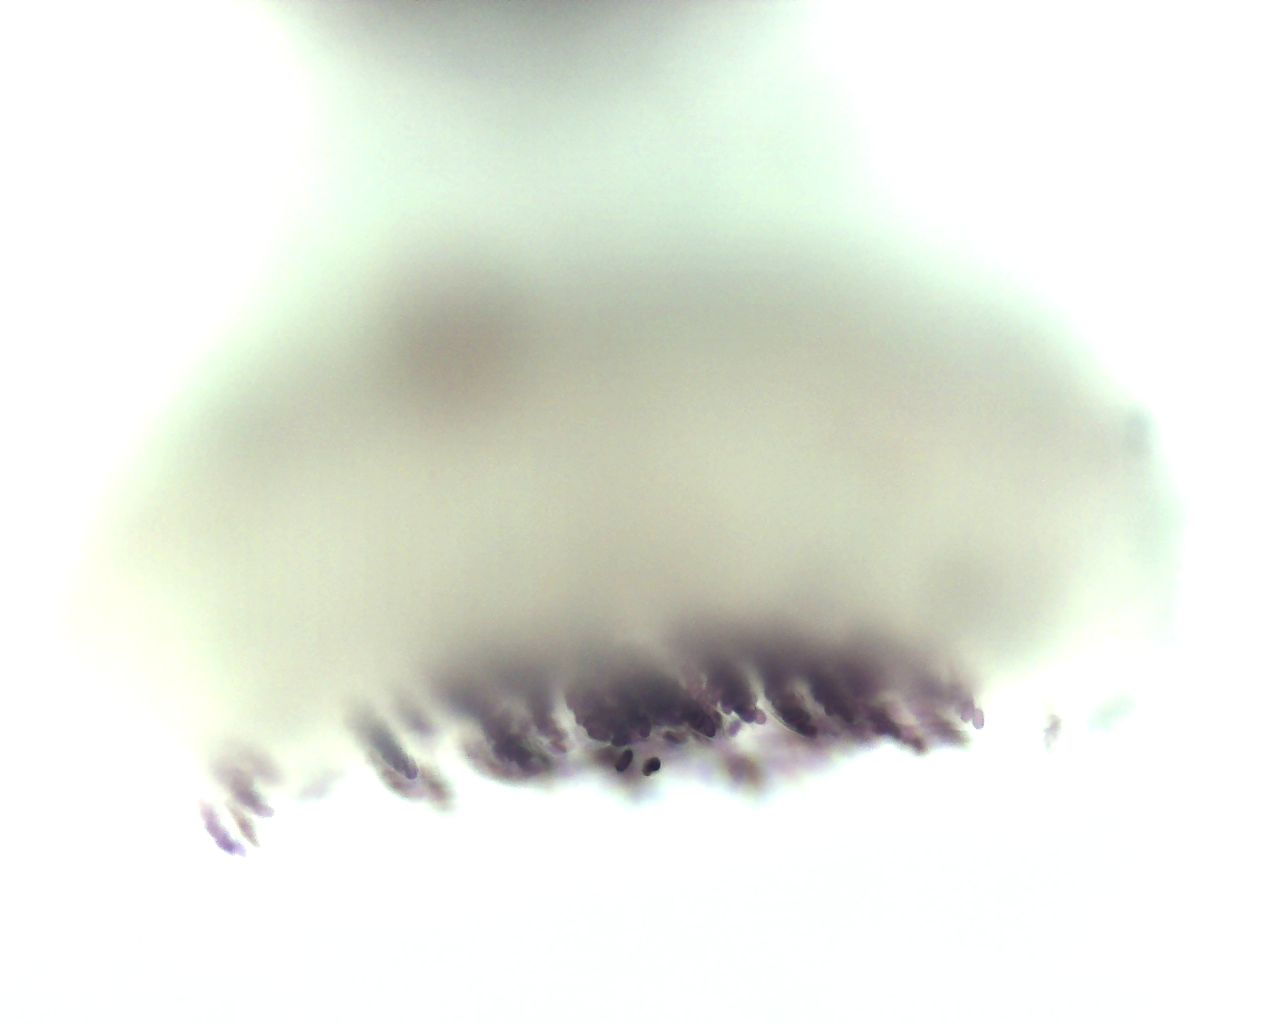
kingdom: Fungi
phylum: Ascomycota
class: Pezizomycetes
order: Pezizales
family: Ascobolaceae
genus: Ascobolus
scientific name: Ascobolus sacchariferus
